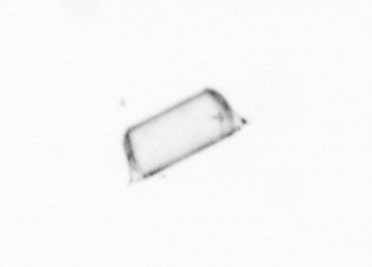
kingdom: Chromista
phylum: Ochrophyta
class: Bacillariophyceae
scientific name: Bacillariophyceae
